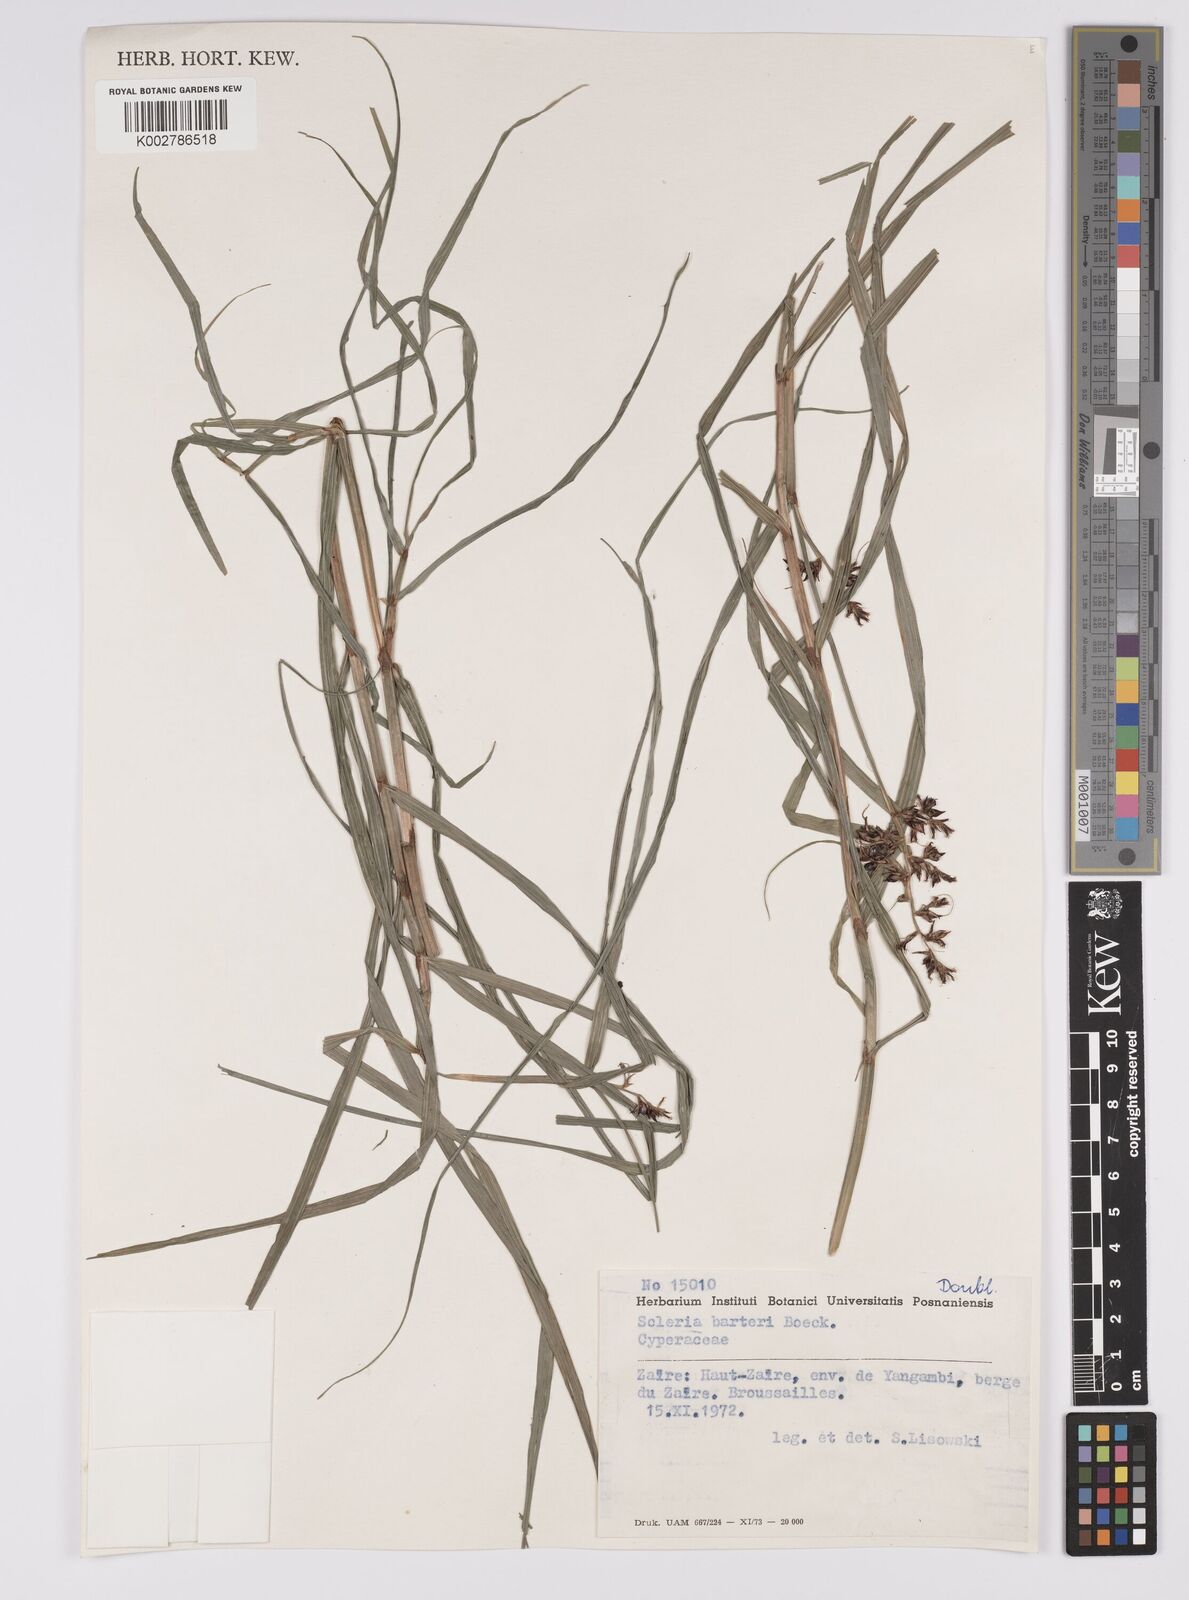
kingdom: Plantae
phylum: Tracheophyta
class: Liliopsida
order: Poales
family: Cyperaceae
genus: Scleria
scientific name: Scleria boivinii
